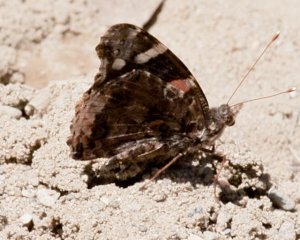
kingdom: Animalia
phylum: Arthropoda
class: Insecta
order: Lepidoptera
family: Nymphalidae
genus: Vanessa
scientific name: Vanessa atalanta
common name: Red Admiral
